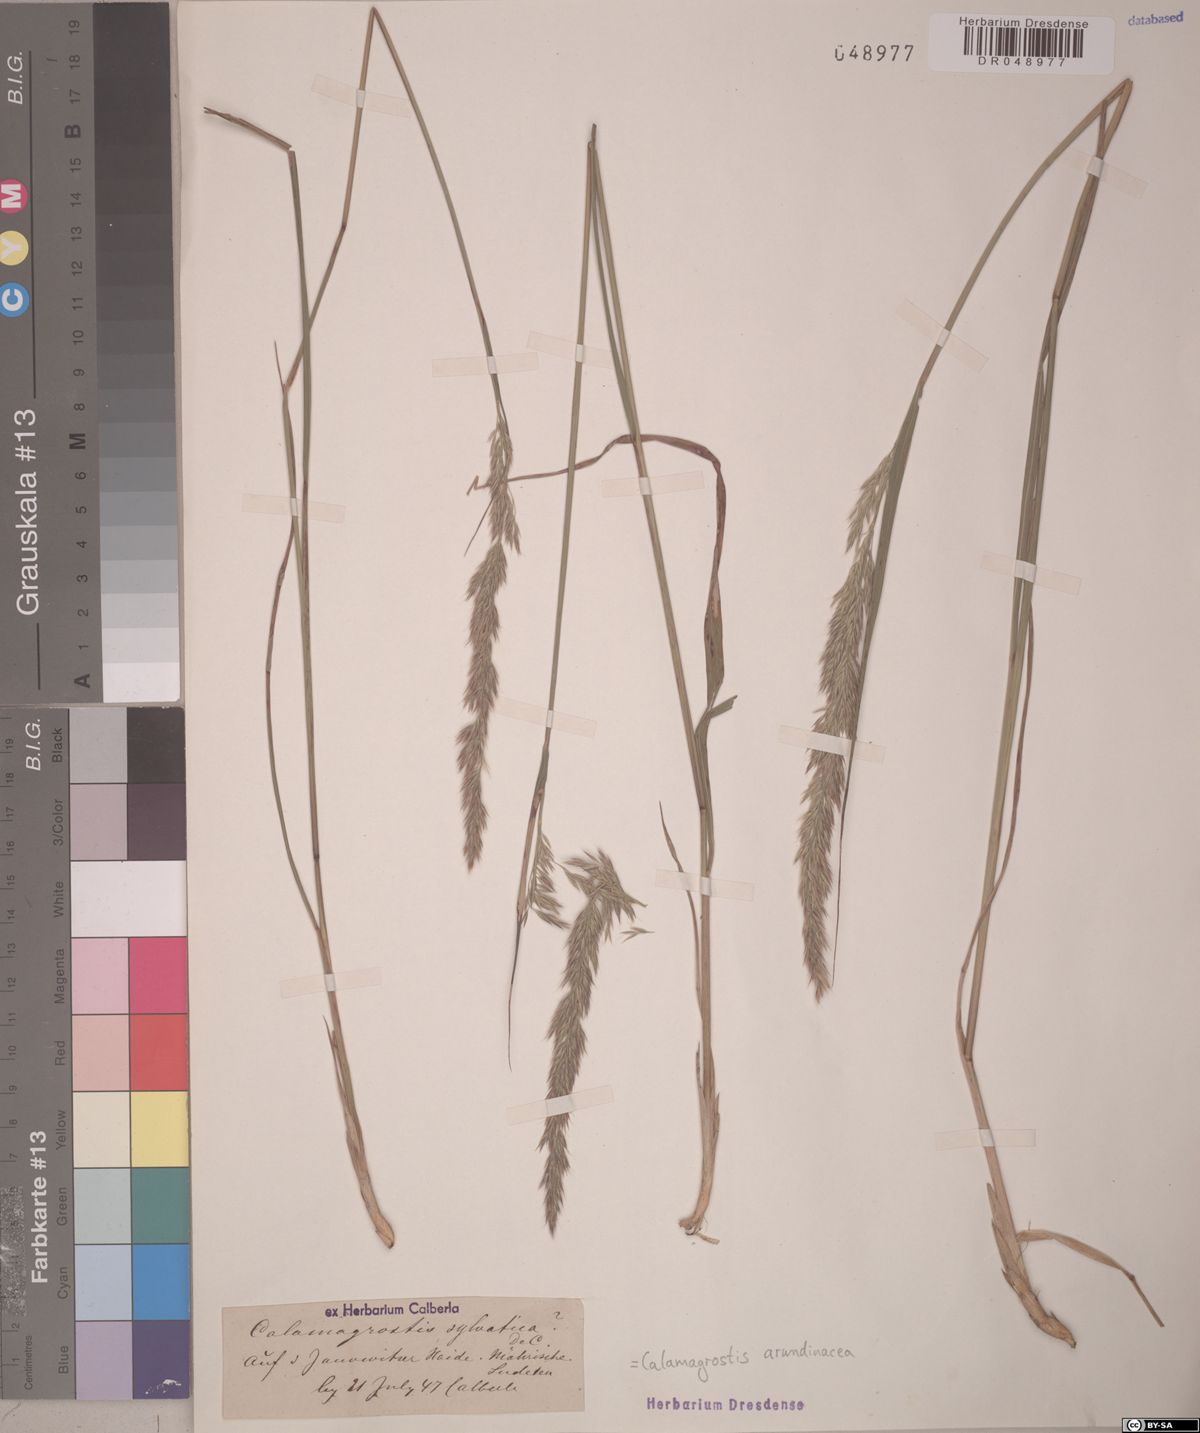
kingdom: Plantae
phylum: Tracheophyta
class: Liliopsida
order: Poales
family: Poaceae
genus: Calamagrostis
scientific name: Calamagrostis arundinacea
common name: Metskastik
